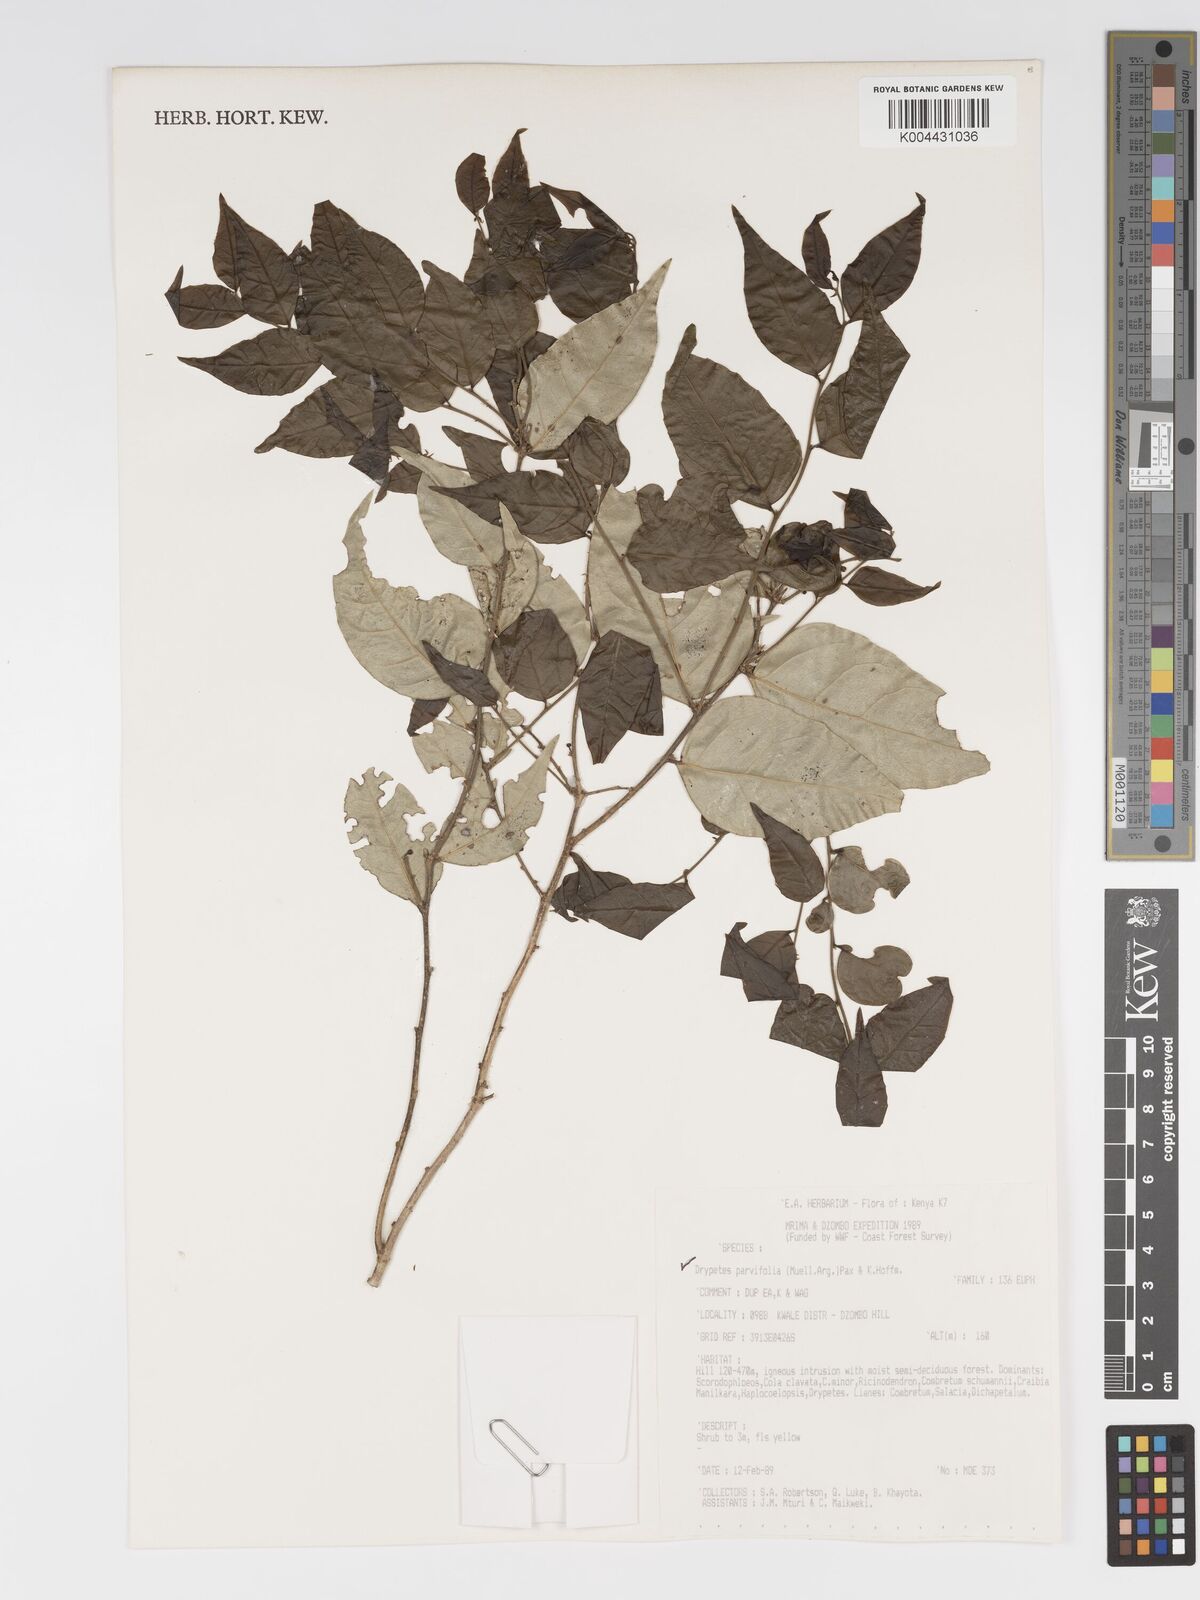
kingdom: Plantae
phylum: Tracheophyta
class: Magnoliopsida
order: Malpighiales
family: Putranjivaceae
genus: Drypetes
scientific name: Drypetes parvifolia
